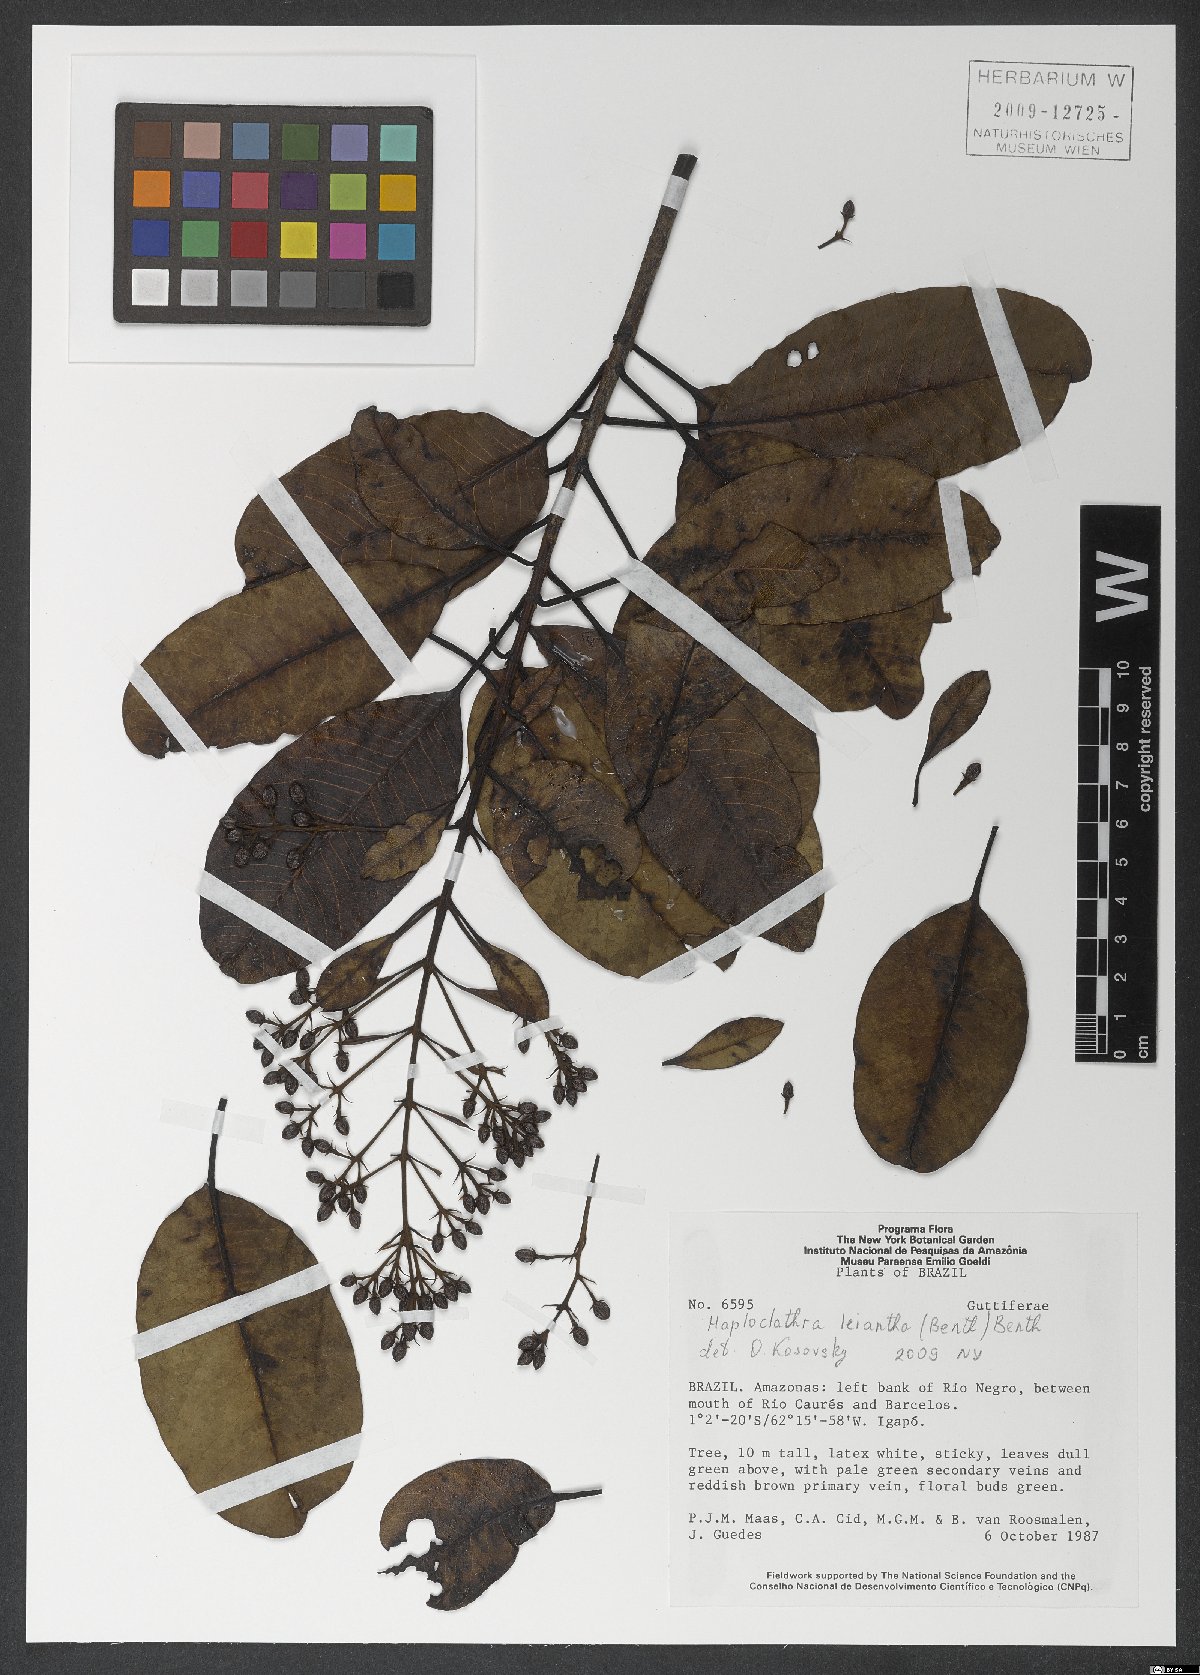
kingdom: Plantae
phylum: Tracheophyta
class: Magnoliopsida
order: Malpighiales
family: Calophyllaceae
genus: Haploclathra
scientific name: Haploclathra leiantha
